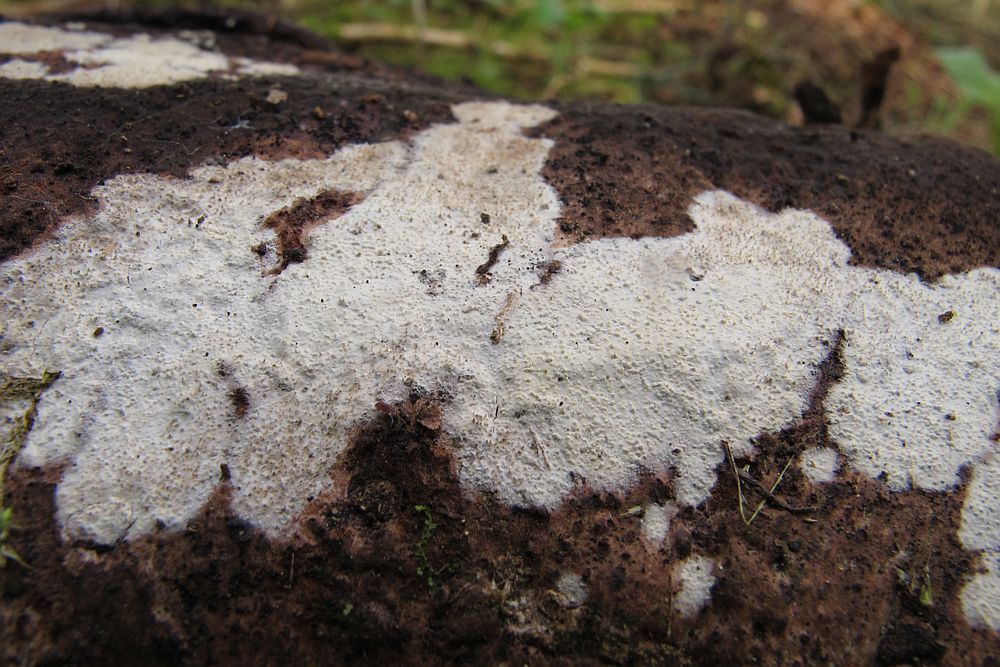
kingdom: Fungi
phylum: Basidiomycota
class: Agaricomycetes
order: Corticiales
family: Corticiaceae
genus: Lyomyces
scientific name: Lyomyces crustosus
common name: vortet hyldehinde
